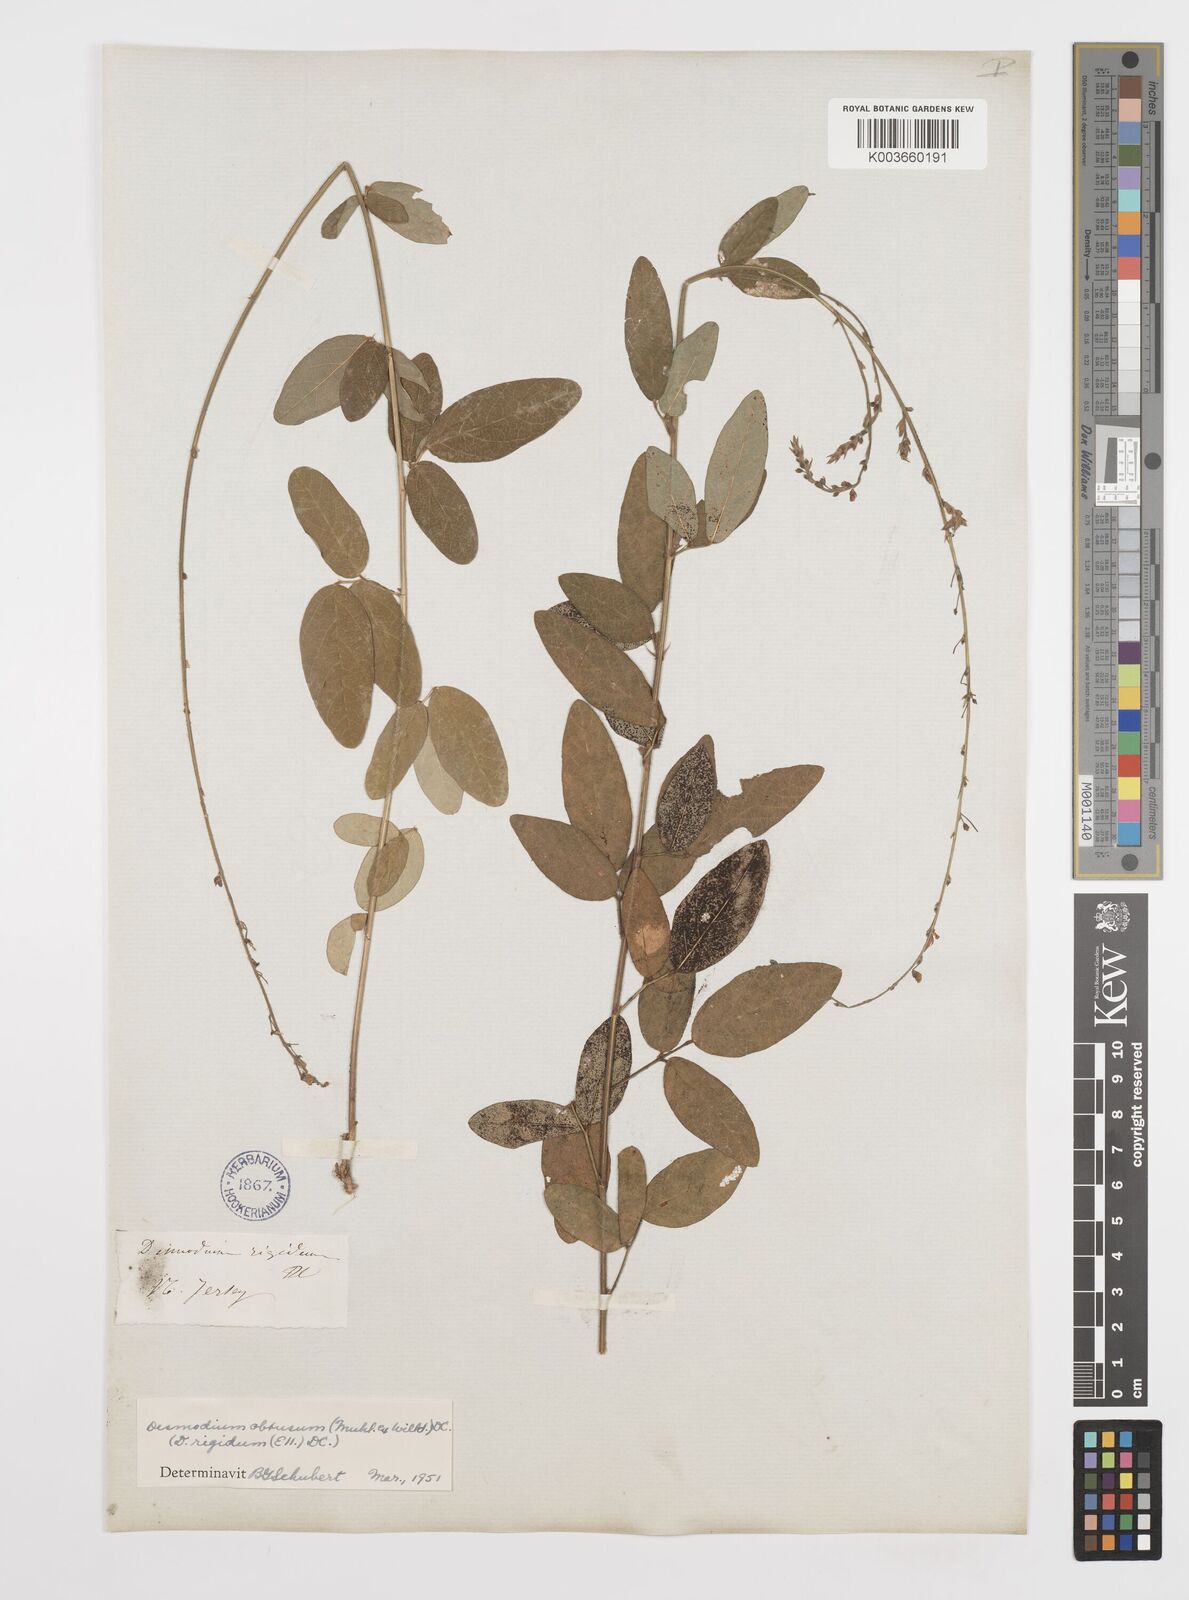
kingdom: Plantae
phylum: Tracheophyta
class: Magnoliopsida
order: Fabales
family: Fabaceae
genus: Desmodium
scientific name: Desmodium obtusum
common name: Stiff tick trefoil
